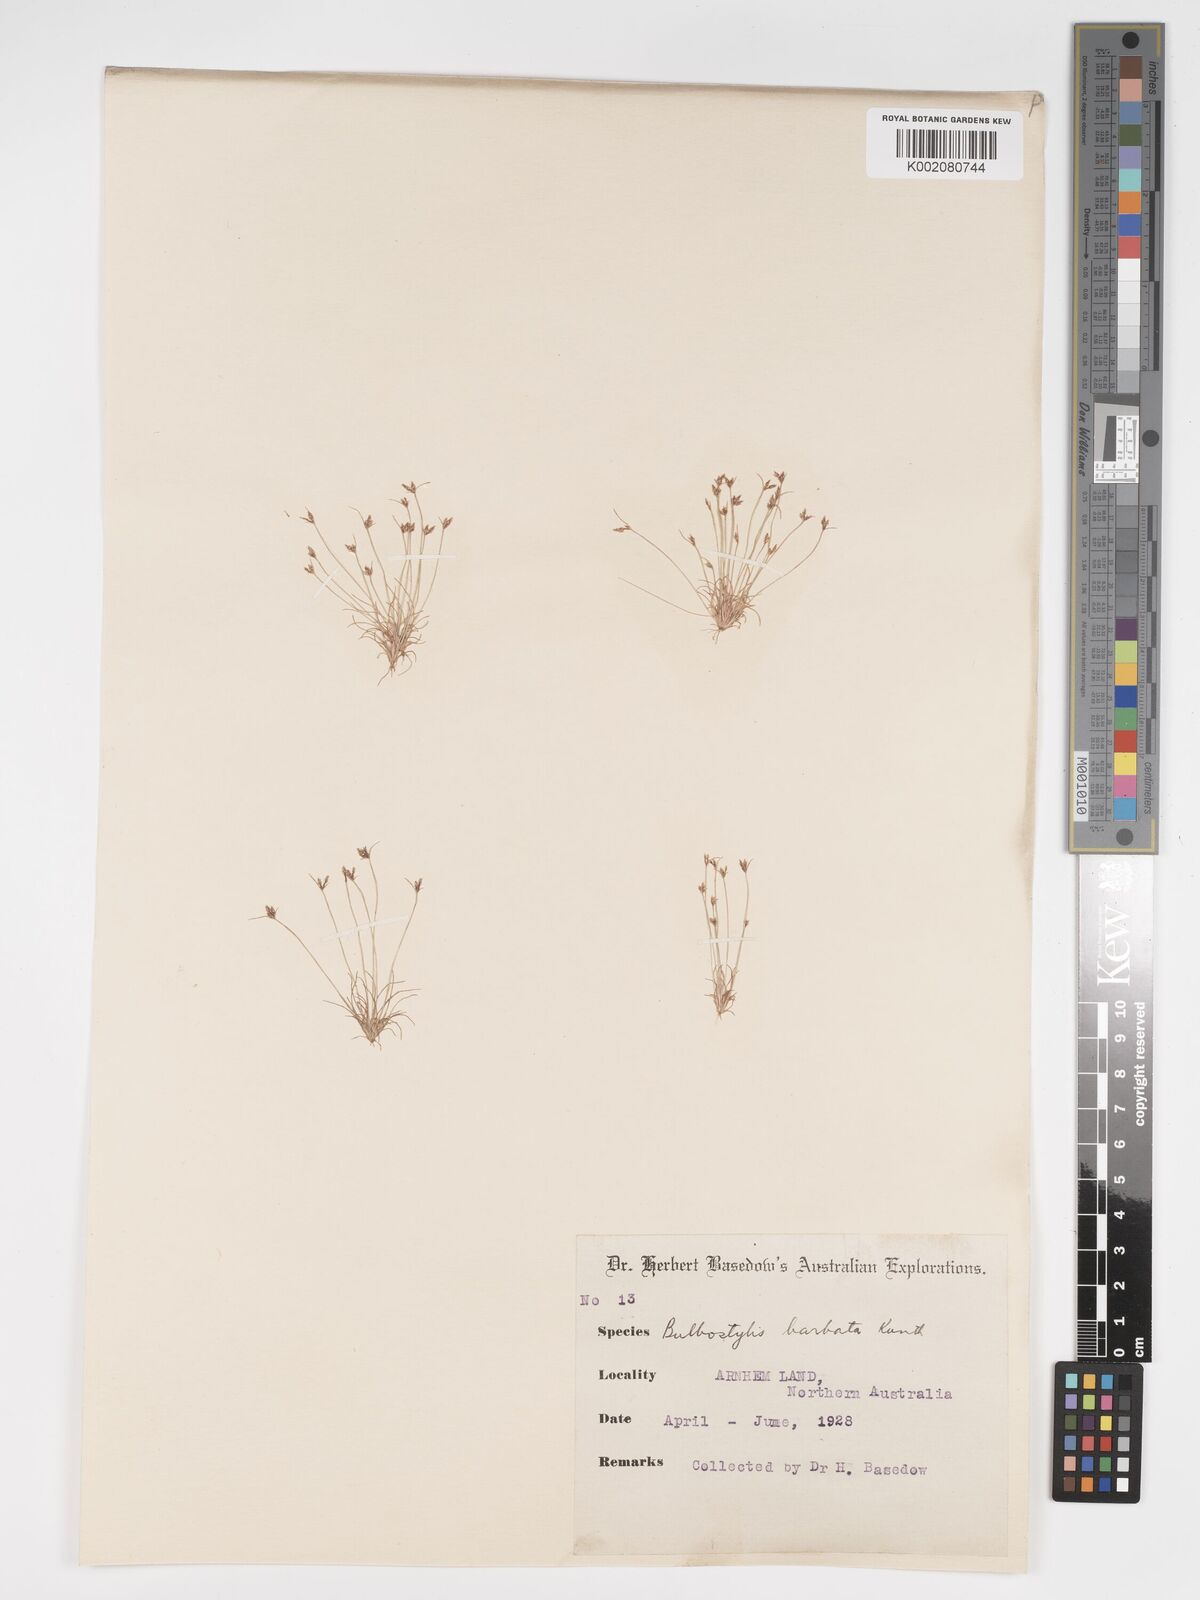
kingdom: Plantae
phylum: Tracheophyta
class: Liliopsida
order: Poales
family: Cyperaceae
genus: Bulbostylis
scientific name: Bulbostylis barbata
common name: Watergrass
